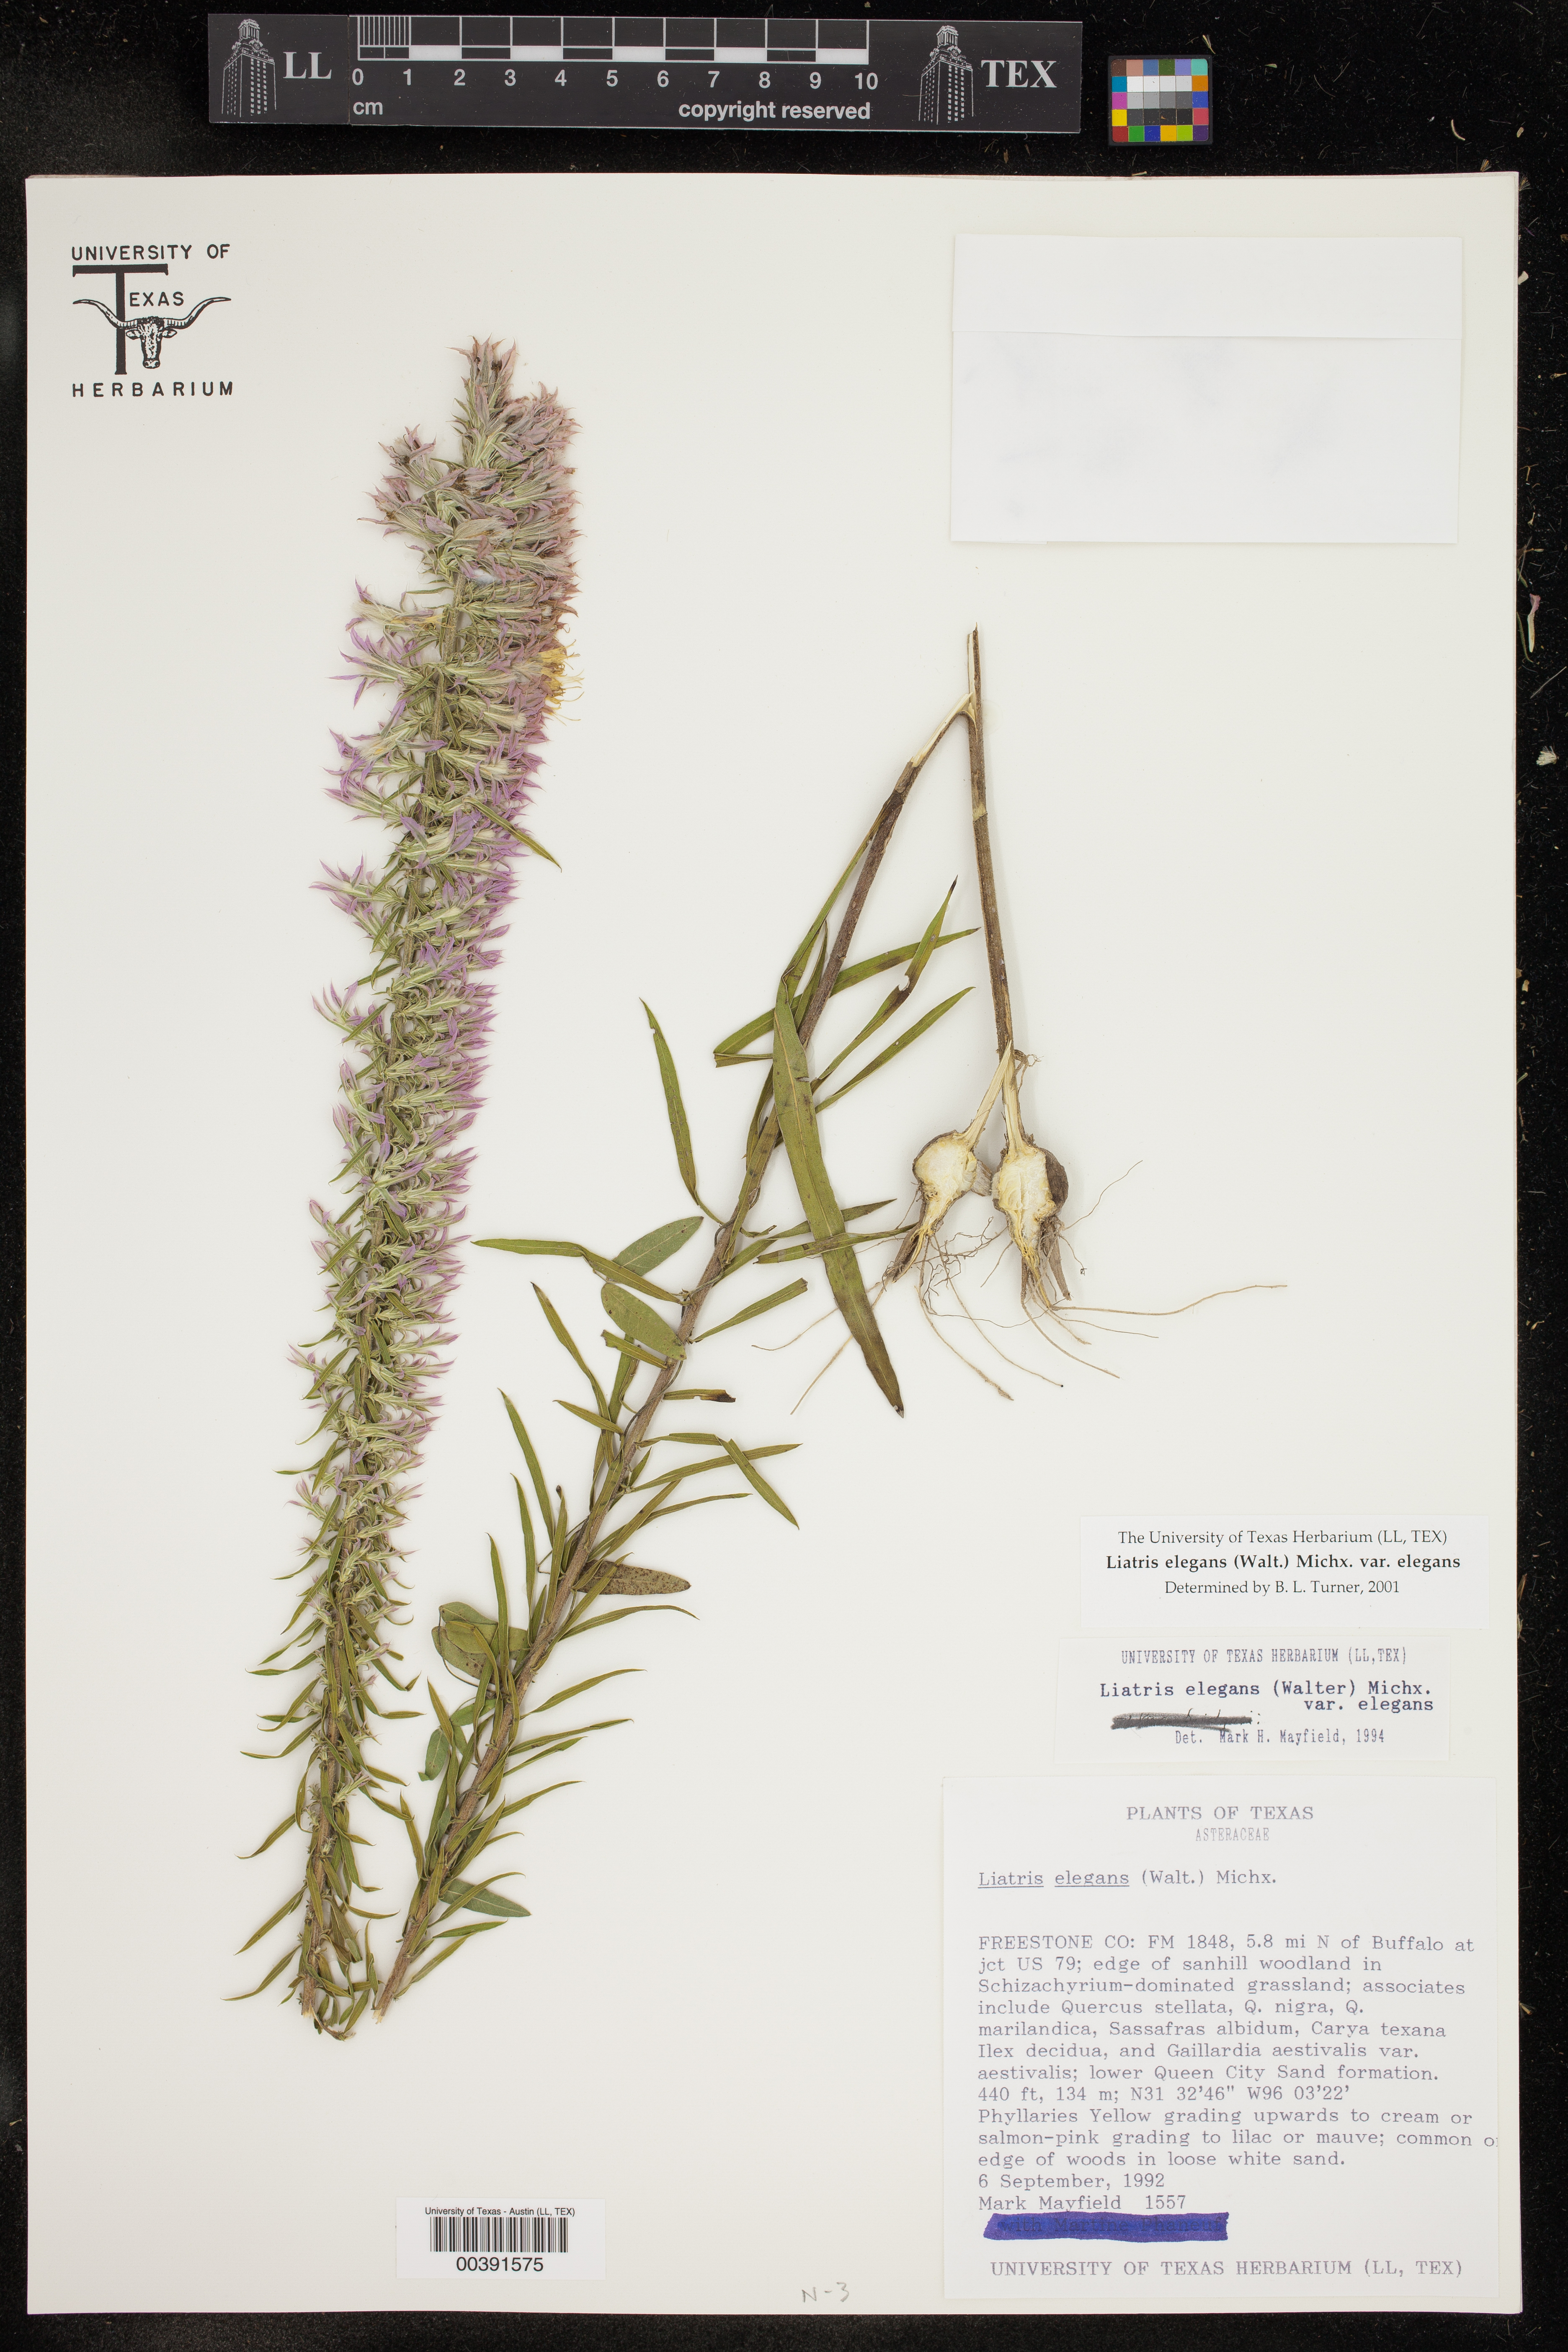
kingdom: Plantae
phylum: Tracheophyta
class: Magnoliopsida
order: Asterales
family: Asteraceae
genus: Liatris
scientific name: Liatris elegans
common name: Pinkscale gayfeather
